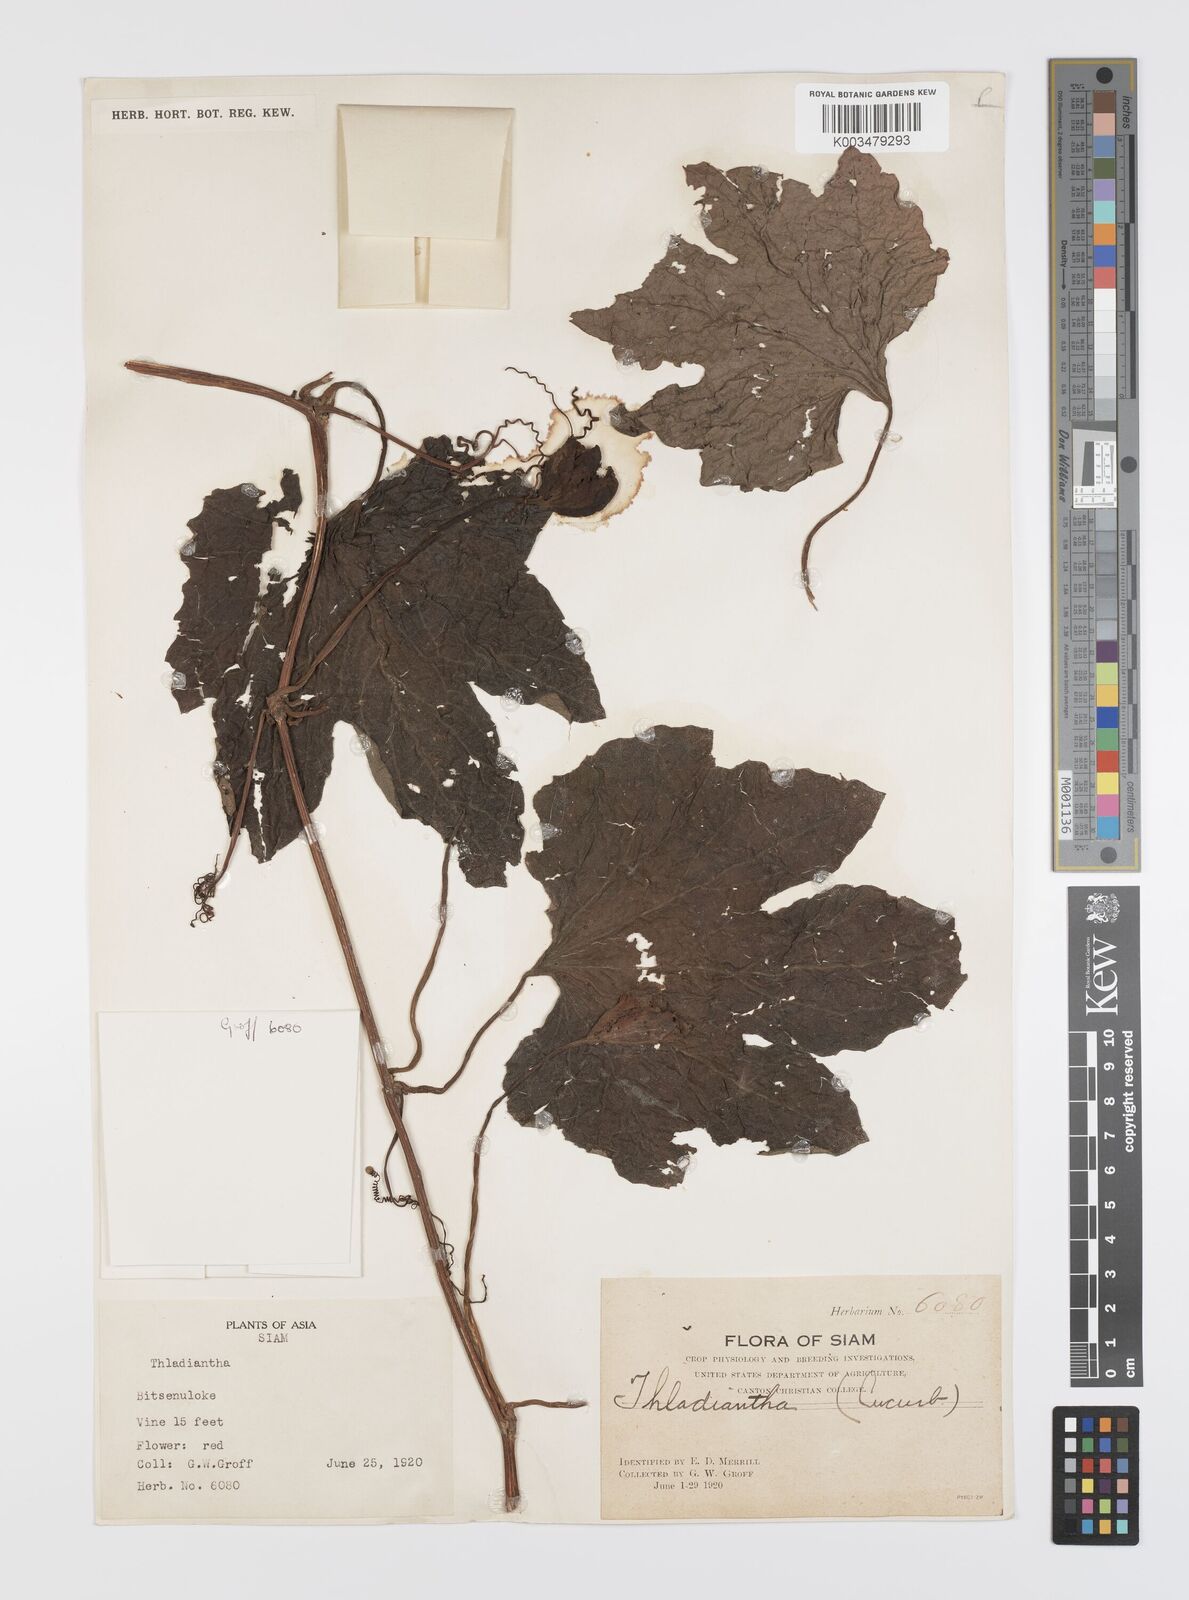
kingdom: Plantae
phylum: Tracheophyta
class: Magnoliopsida
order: Cucurbitales
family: Cucurbitaceae
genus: Trichosanthes
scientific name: Trichosanthes rubriflos
